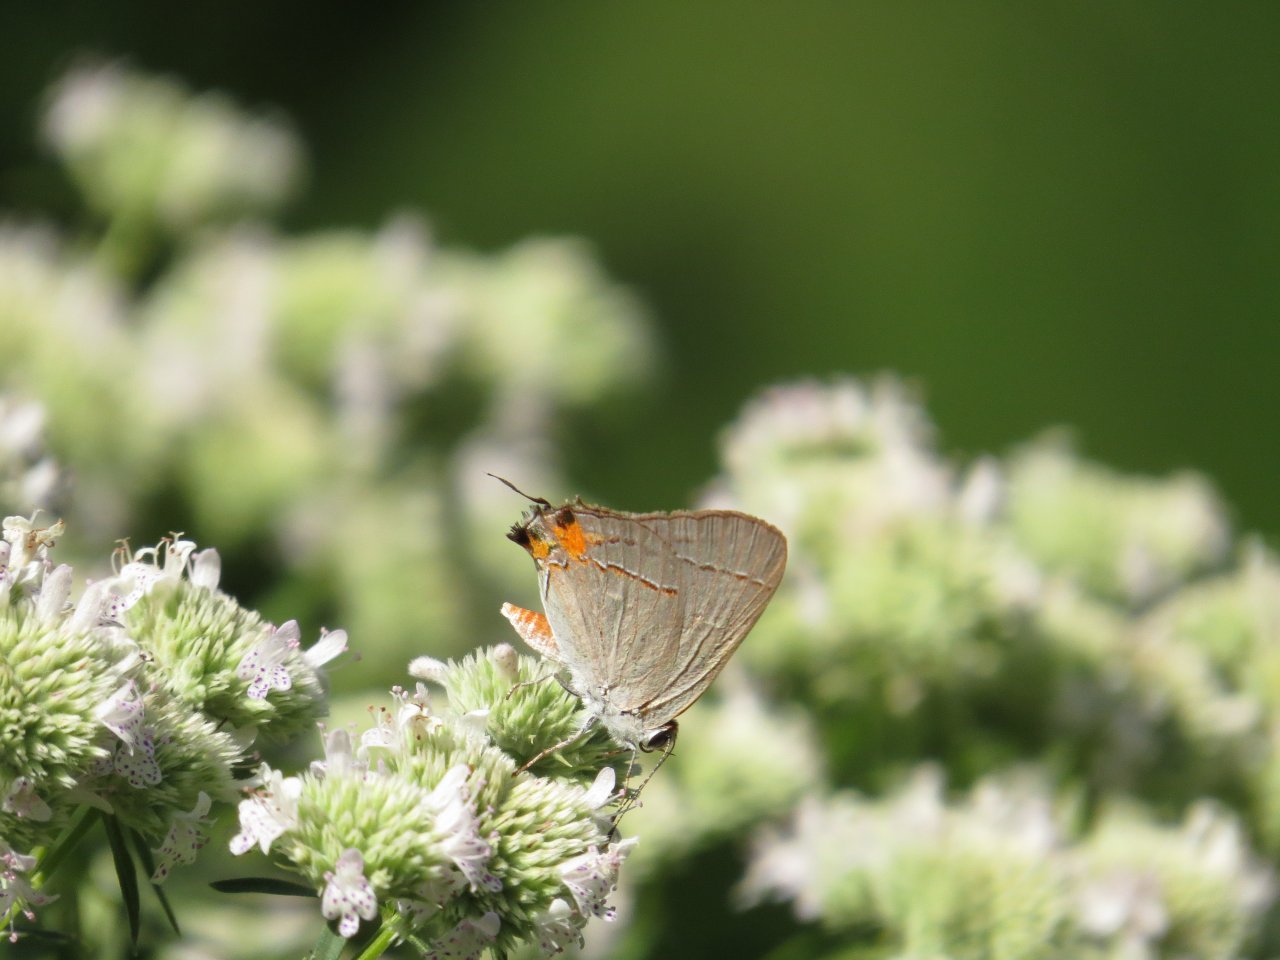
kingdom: Animalia
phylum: Arthropoda
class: Insecta
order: Lepidoptera
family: Lycaenidae
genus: Strymon
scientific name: Strymon melinus
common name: Gray Hairstreak
